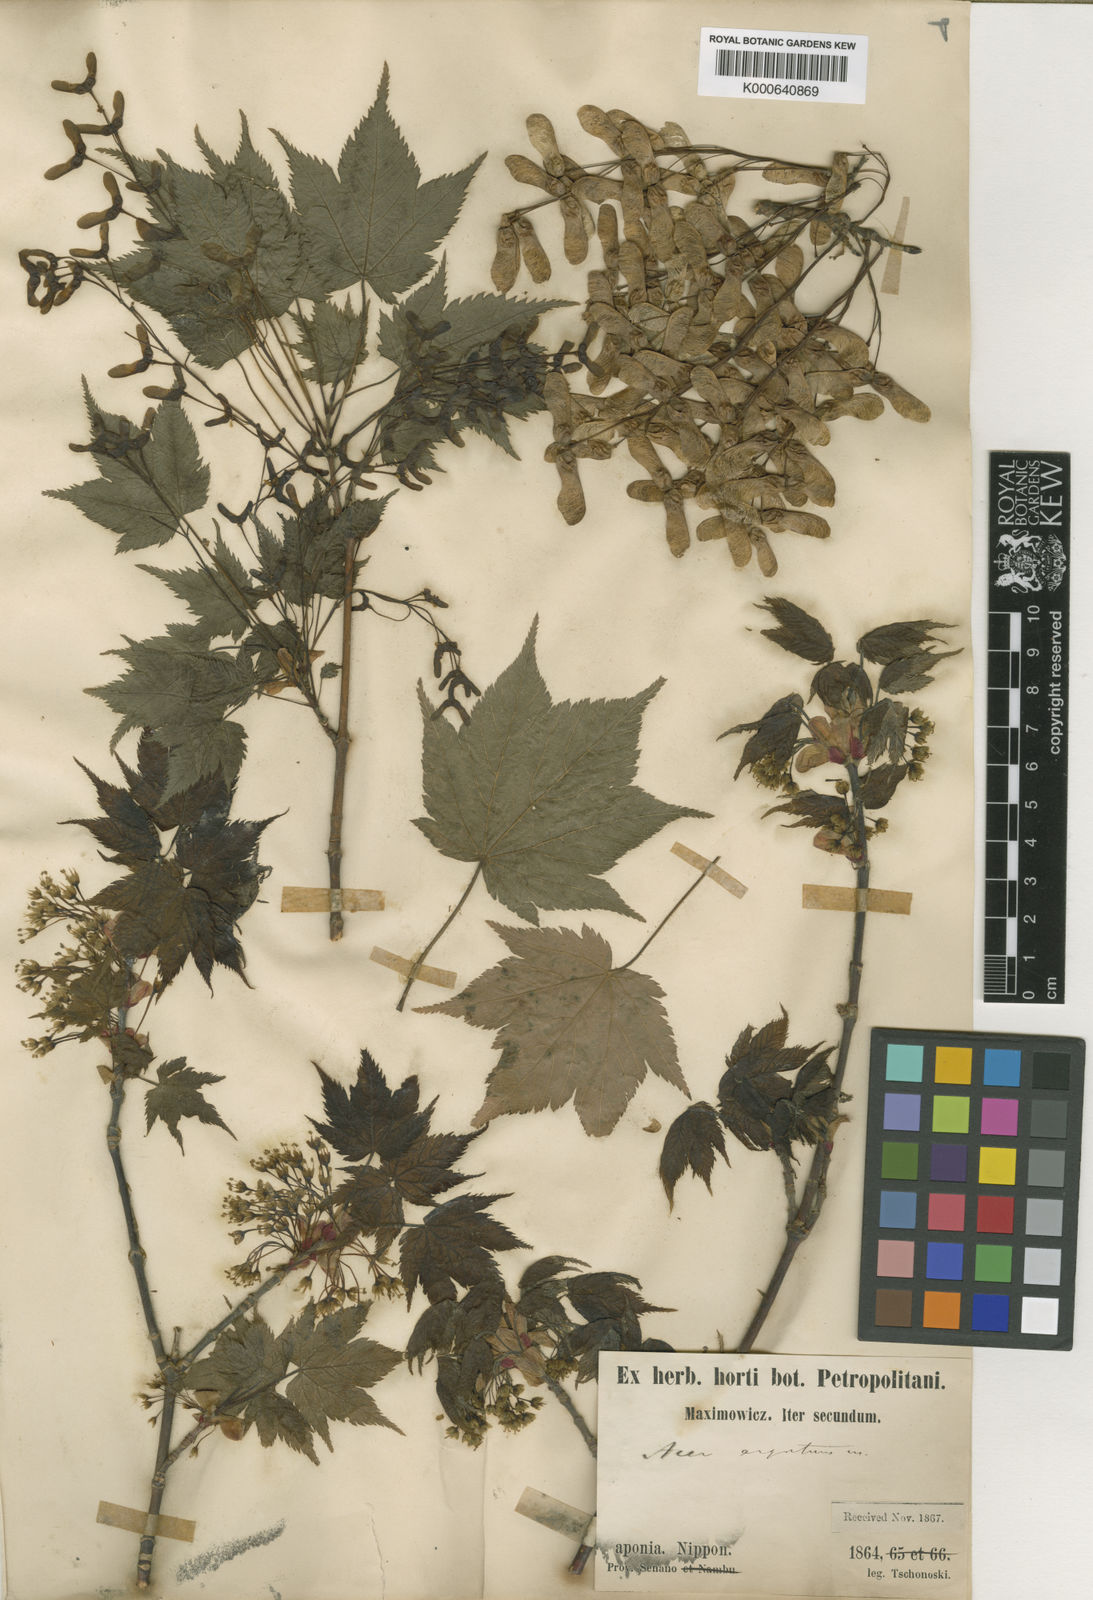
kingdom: Plantae
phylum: Tracheophyta
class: Magnoliopsida
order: Sapindales
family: Sapindaceae
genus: Acer
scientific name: Acer argutum
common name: Pointed-leaf maple
